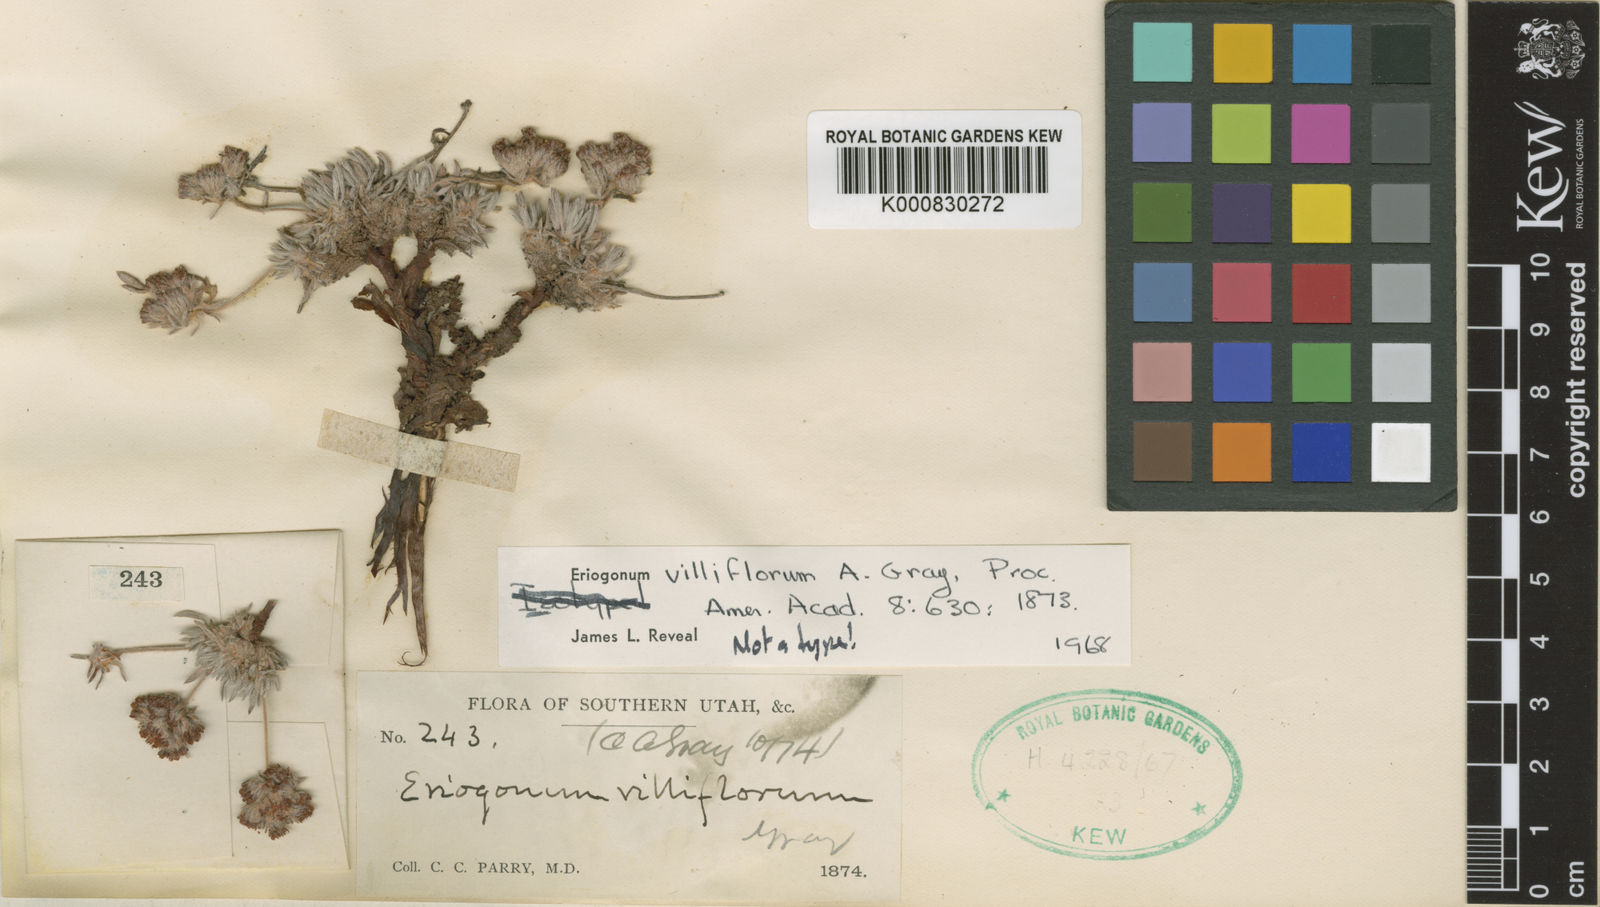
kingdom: Plantae
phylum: Tracheophyta
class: Magnoliopsida
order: Caryophyllales
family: Polygonaceae
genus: Eriogonum
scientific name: Eriogonum villiflorum
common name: Gray's wild buckwheat
